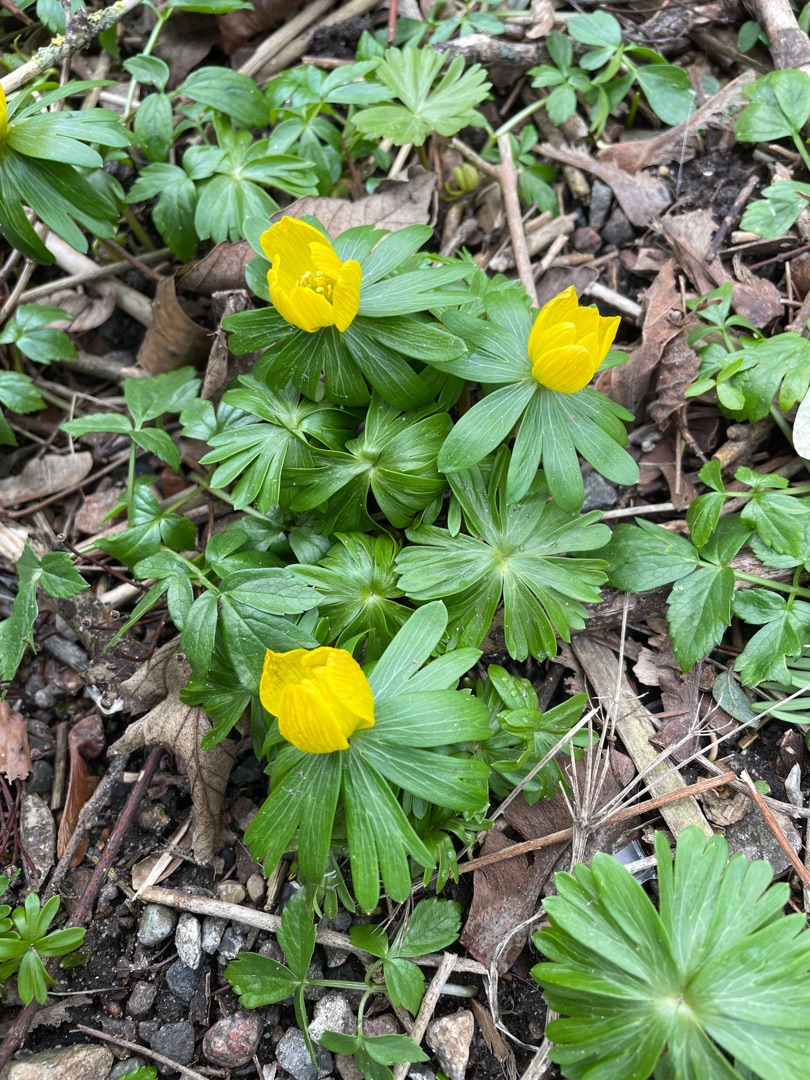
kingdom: Plantae
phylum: Tracheophyta
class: Magnoliopsida
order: Ranunculales
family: Ranunculaceae
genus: Eranthis
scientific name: Eranthis hyemalis
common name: Erantis
